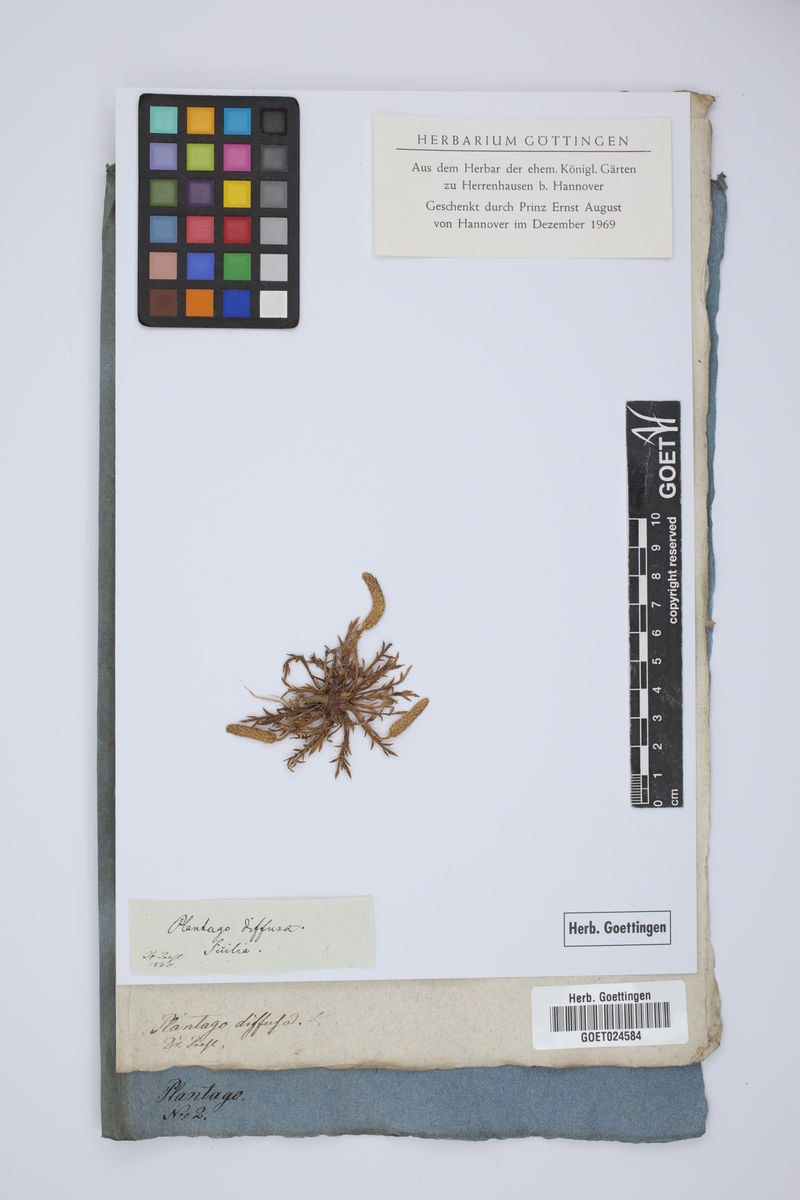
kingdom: Plantae
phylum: Tracheophyta
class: Magnoliopsida
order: Lamiales
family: Plantaginaceae
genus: Plantago
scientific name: Plantago diffusa
